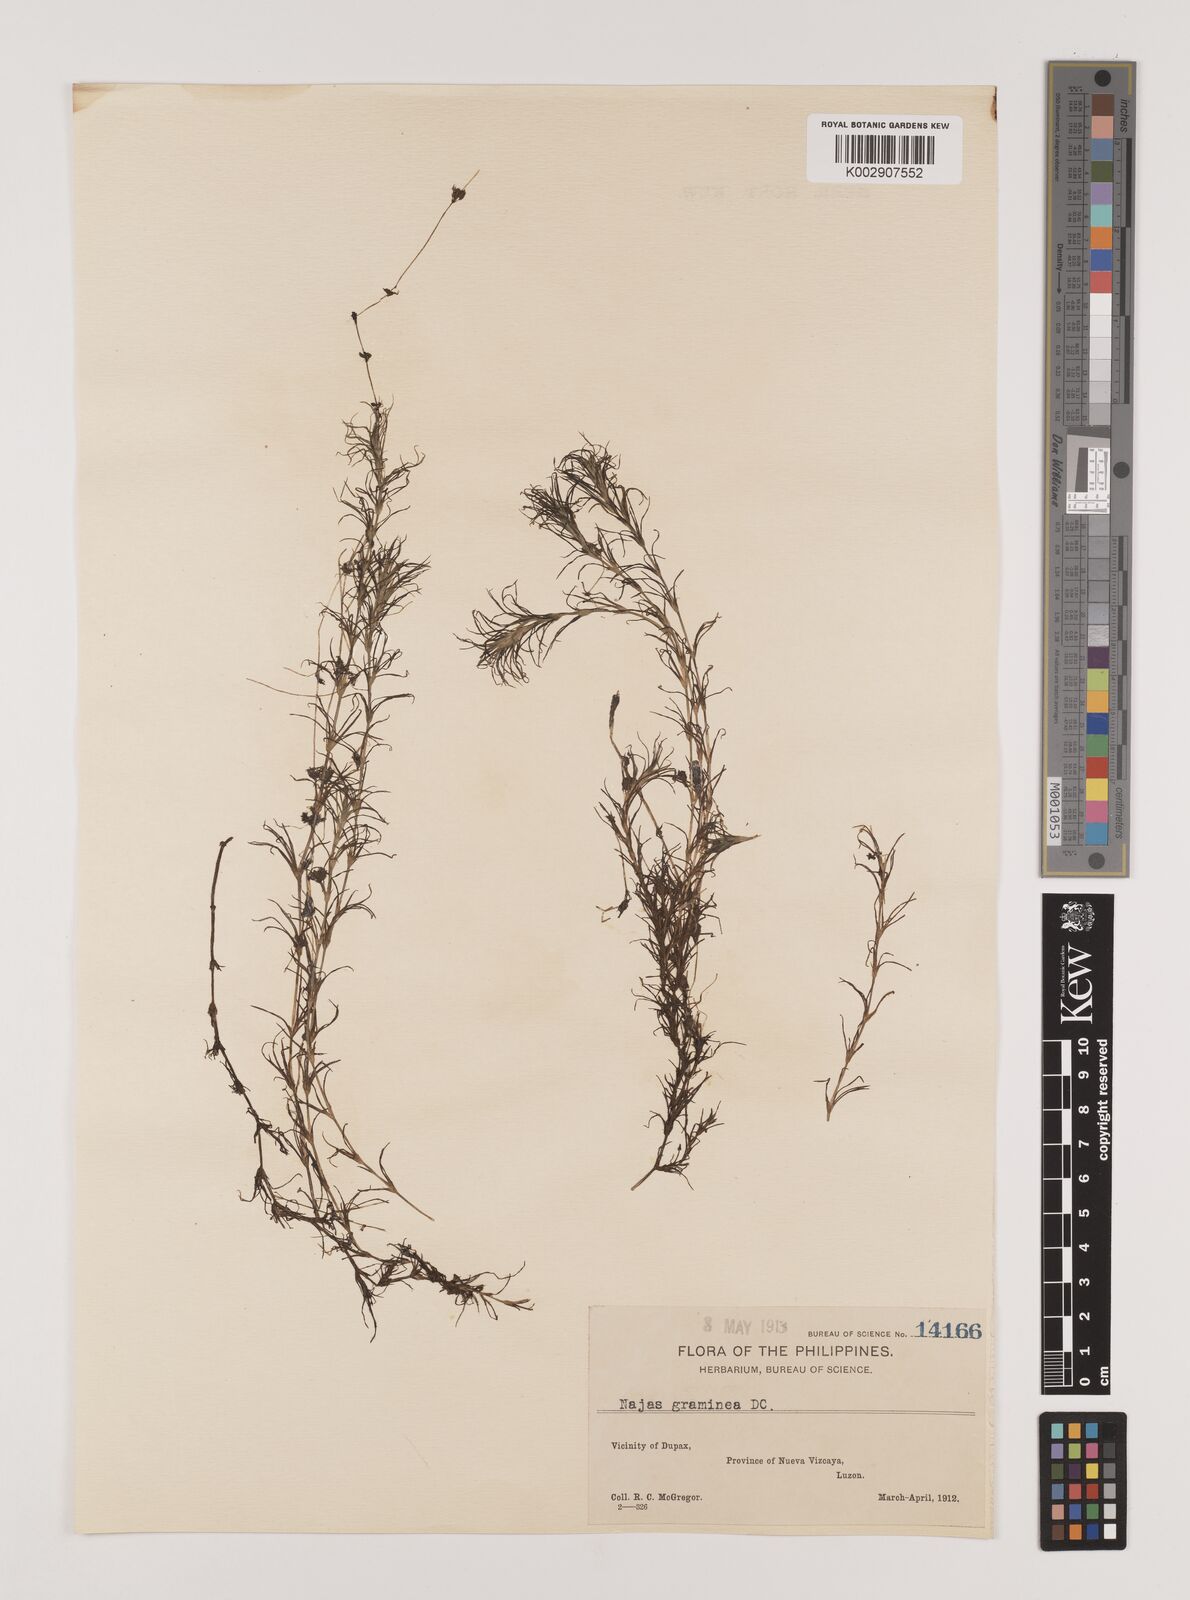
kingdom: Plantae
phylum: Tracheophyta
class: Liliopsida
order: Alismatales
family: Hydrocharitaceae
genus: Najas
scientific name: Najas graminea
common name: Ricefield waternymph
